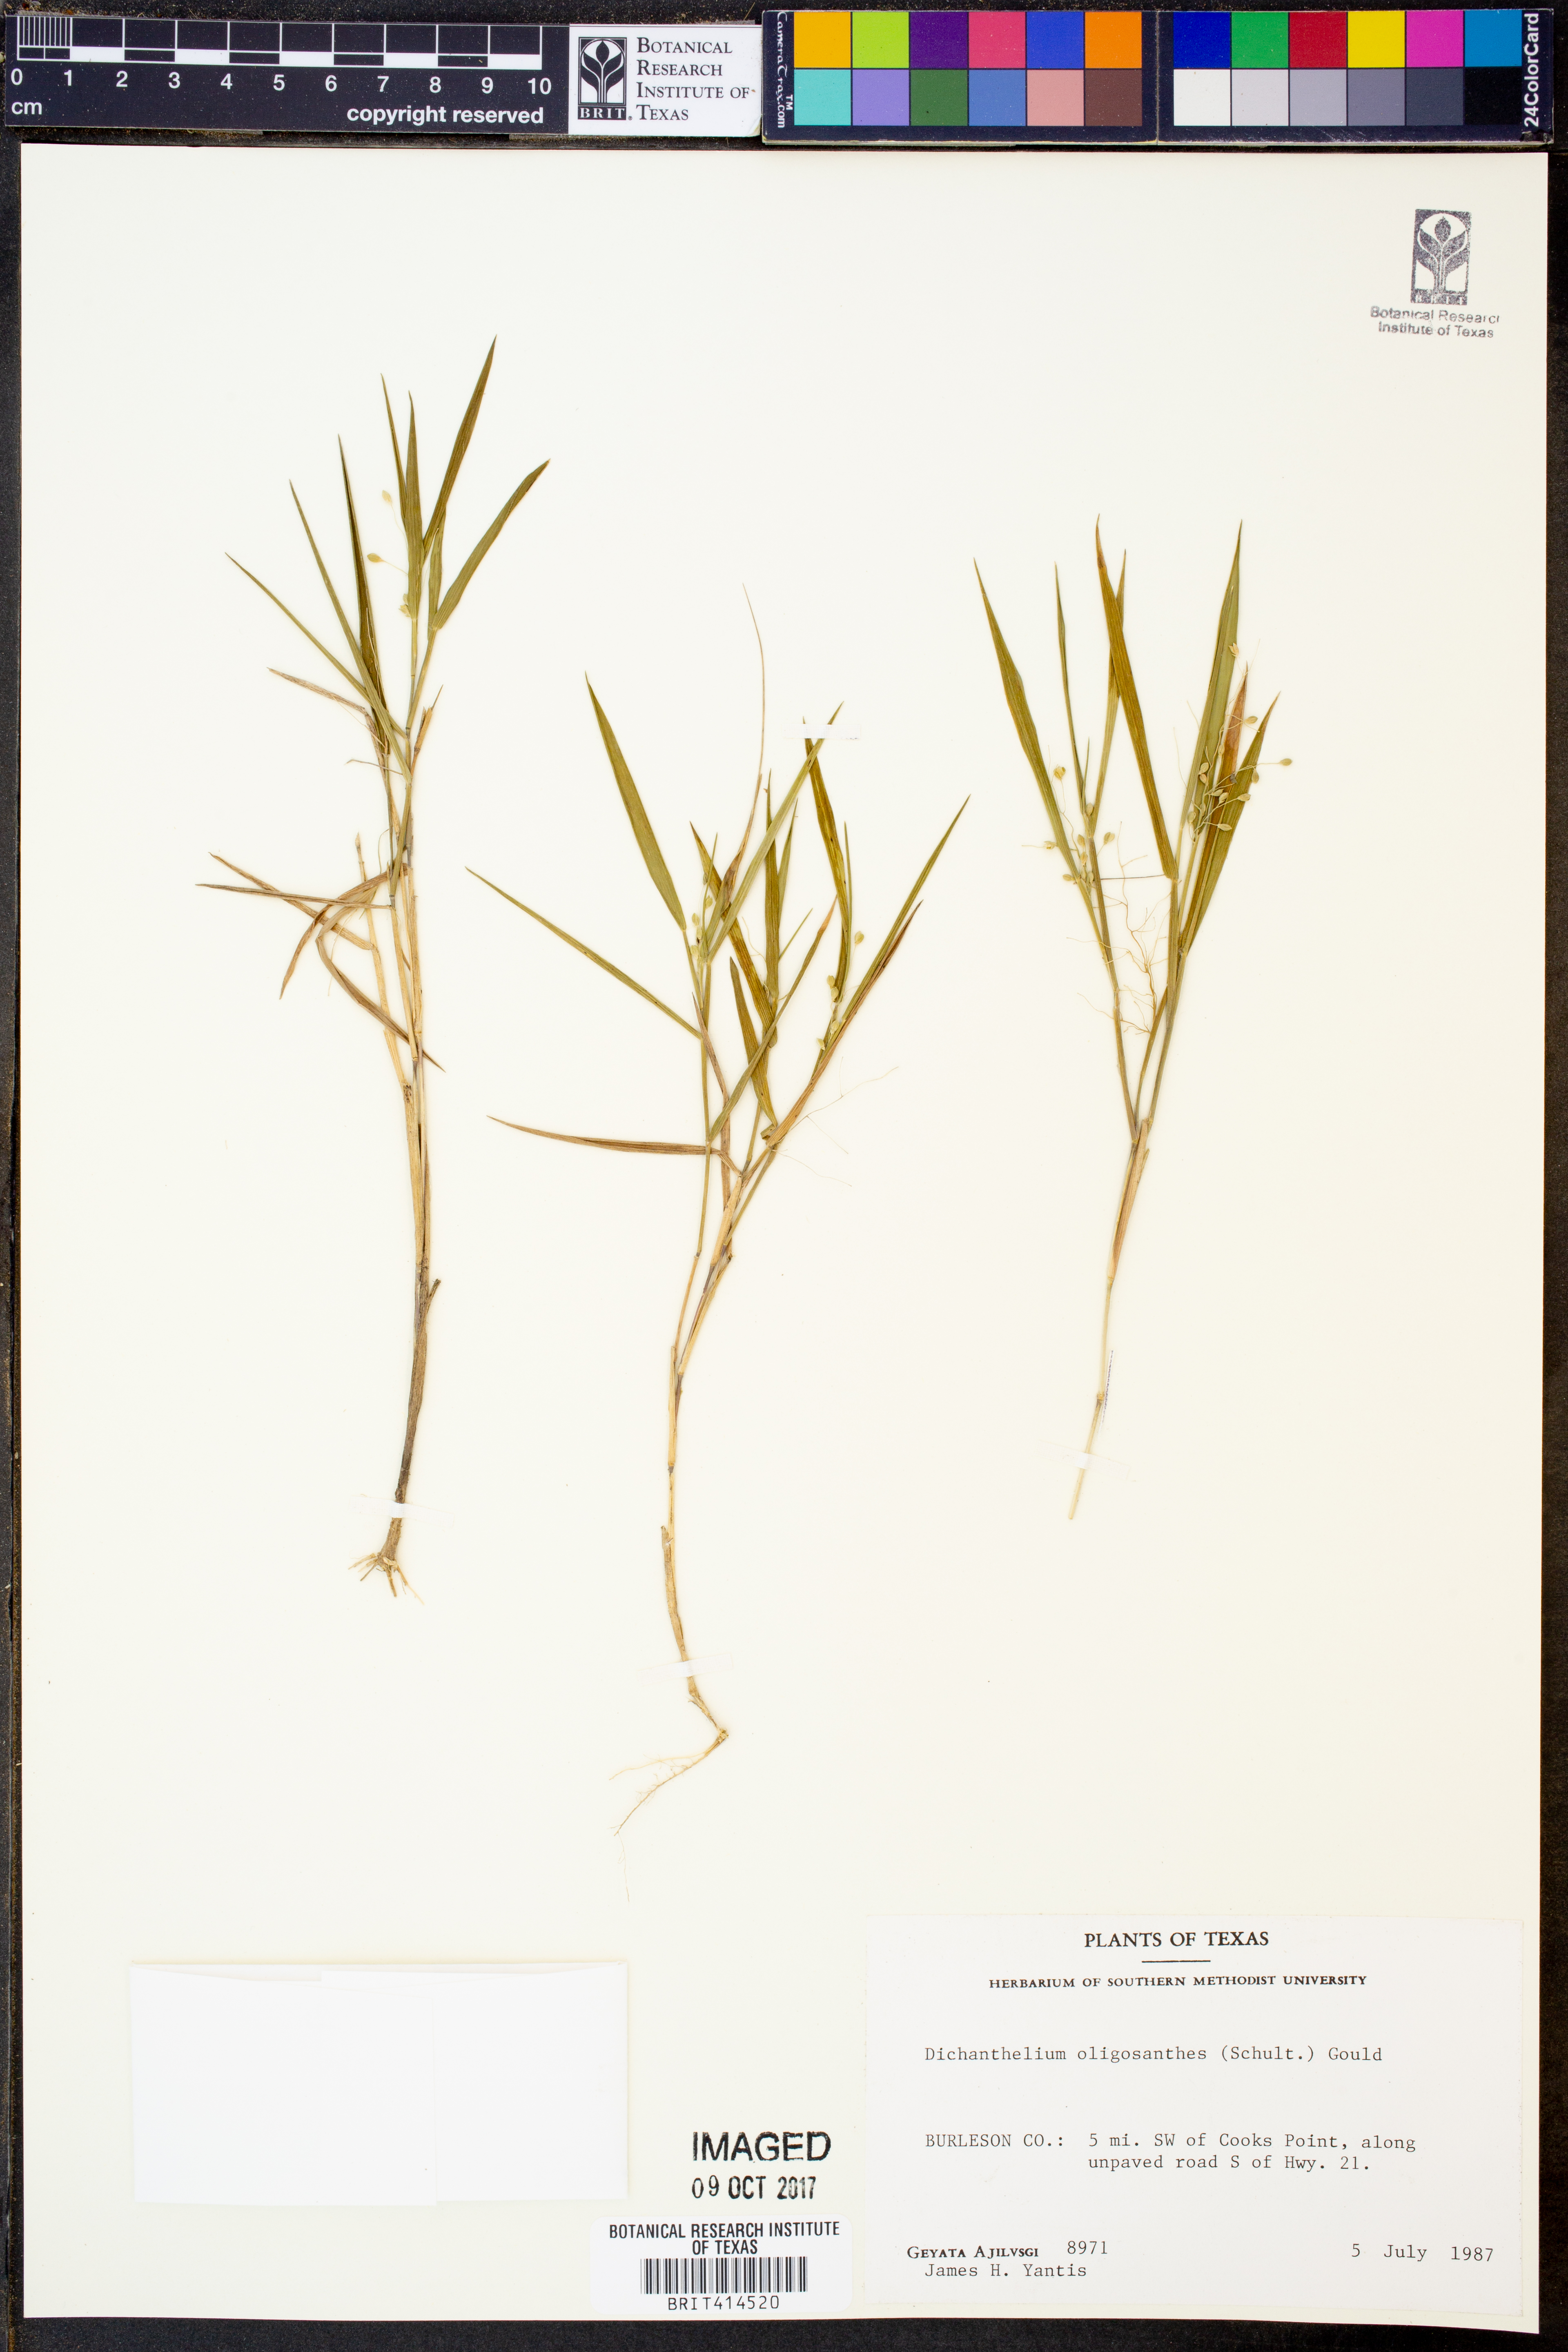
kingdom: Plantae
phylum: Tracheophyta
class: Liliopsida
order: Poales
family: Poaceae
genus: Dichanthelium
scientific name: Dichanthelium oligosanthes
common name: Few-anther obscuregrass
